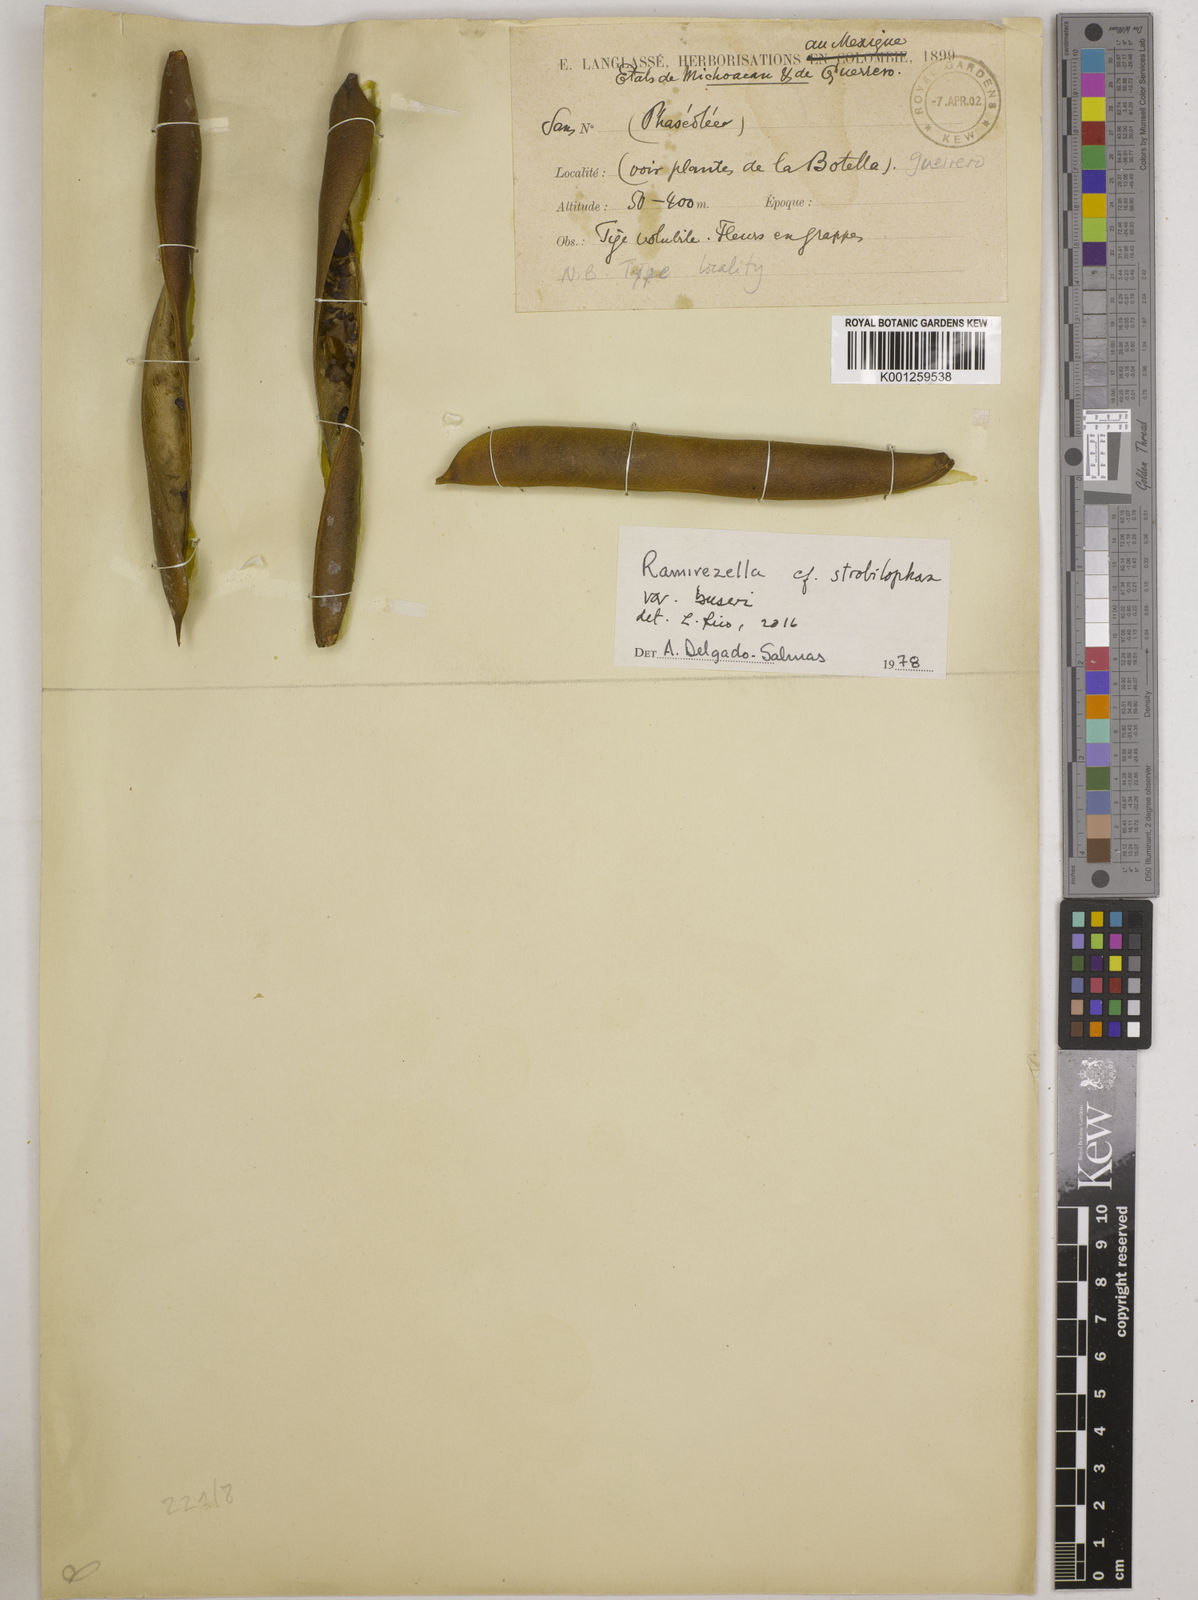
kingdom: Plantae
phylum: Tracheophyta
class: Magnoliopsida
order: Fabales
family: Fabaceae
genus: Ramirezella
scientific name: Ramirezella strobilophora
